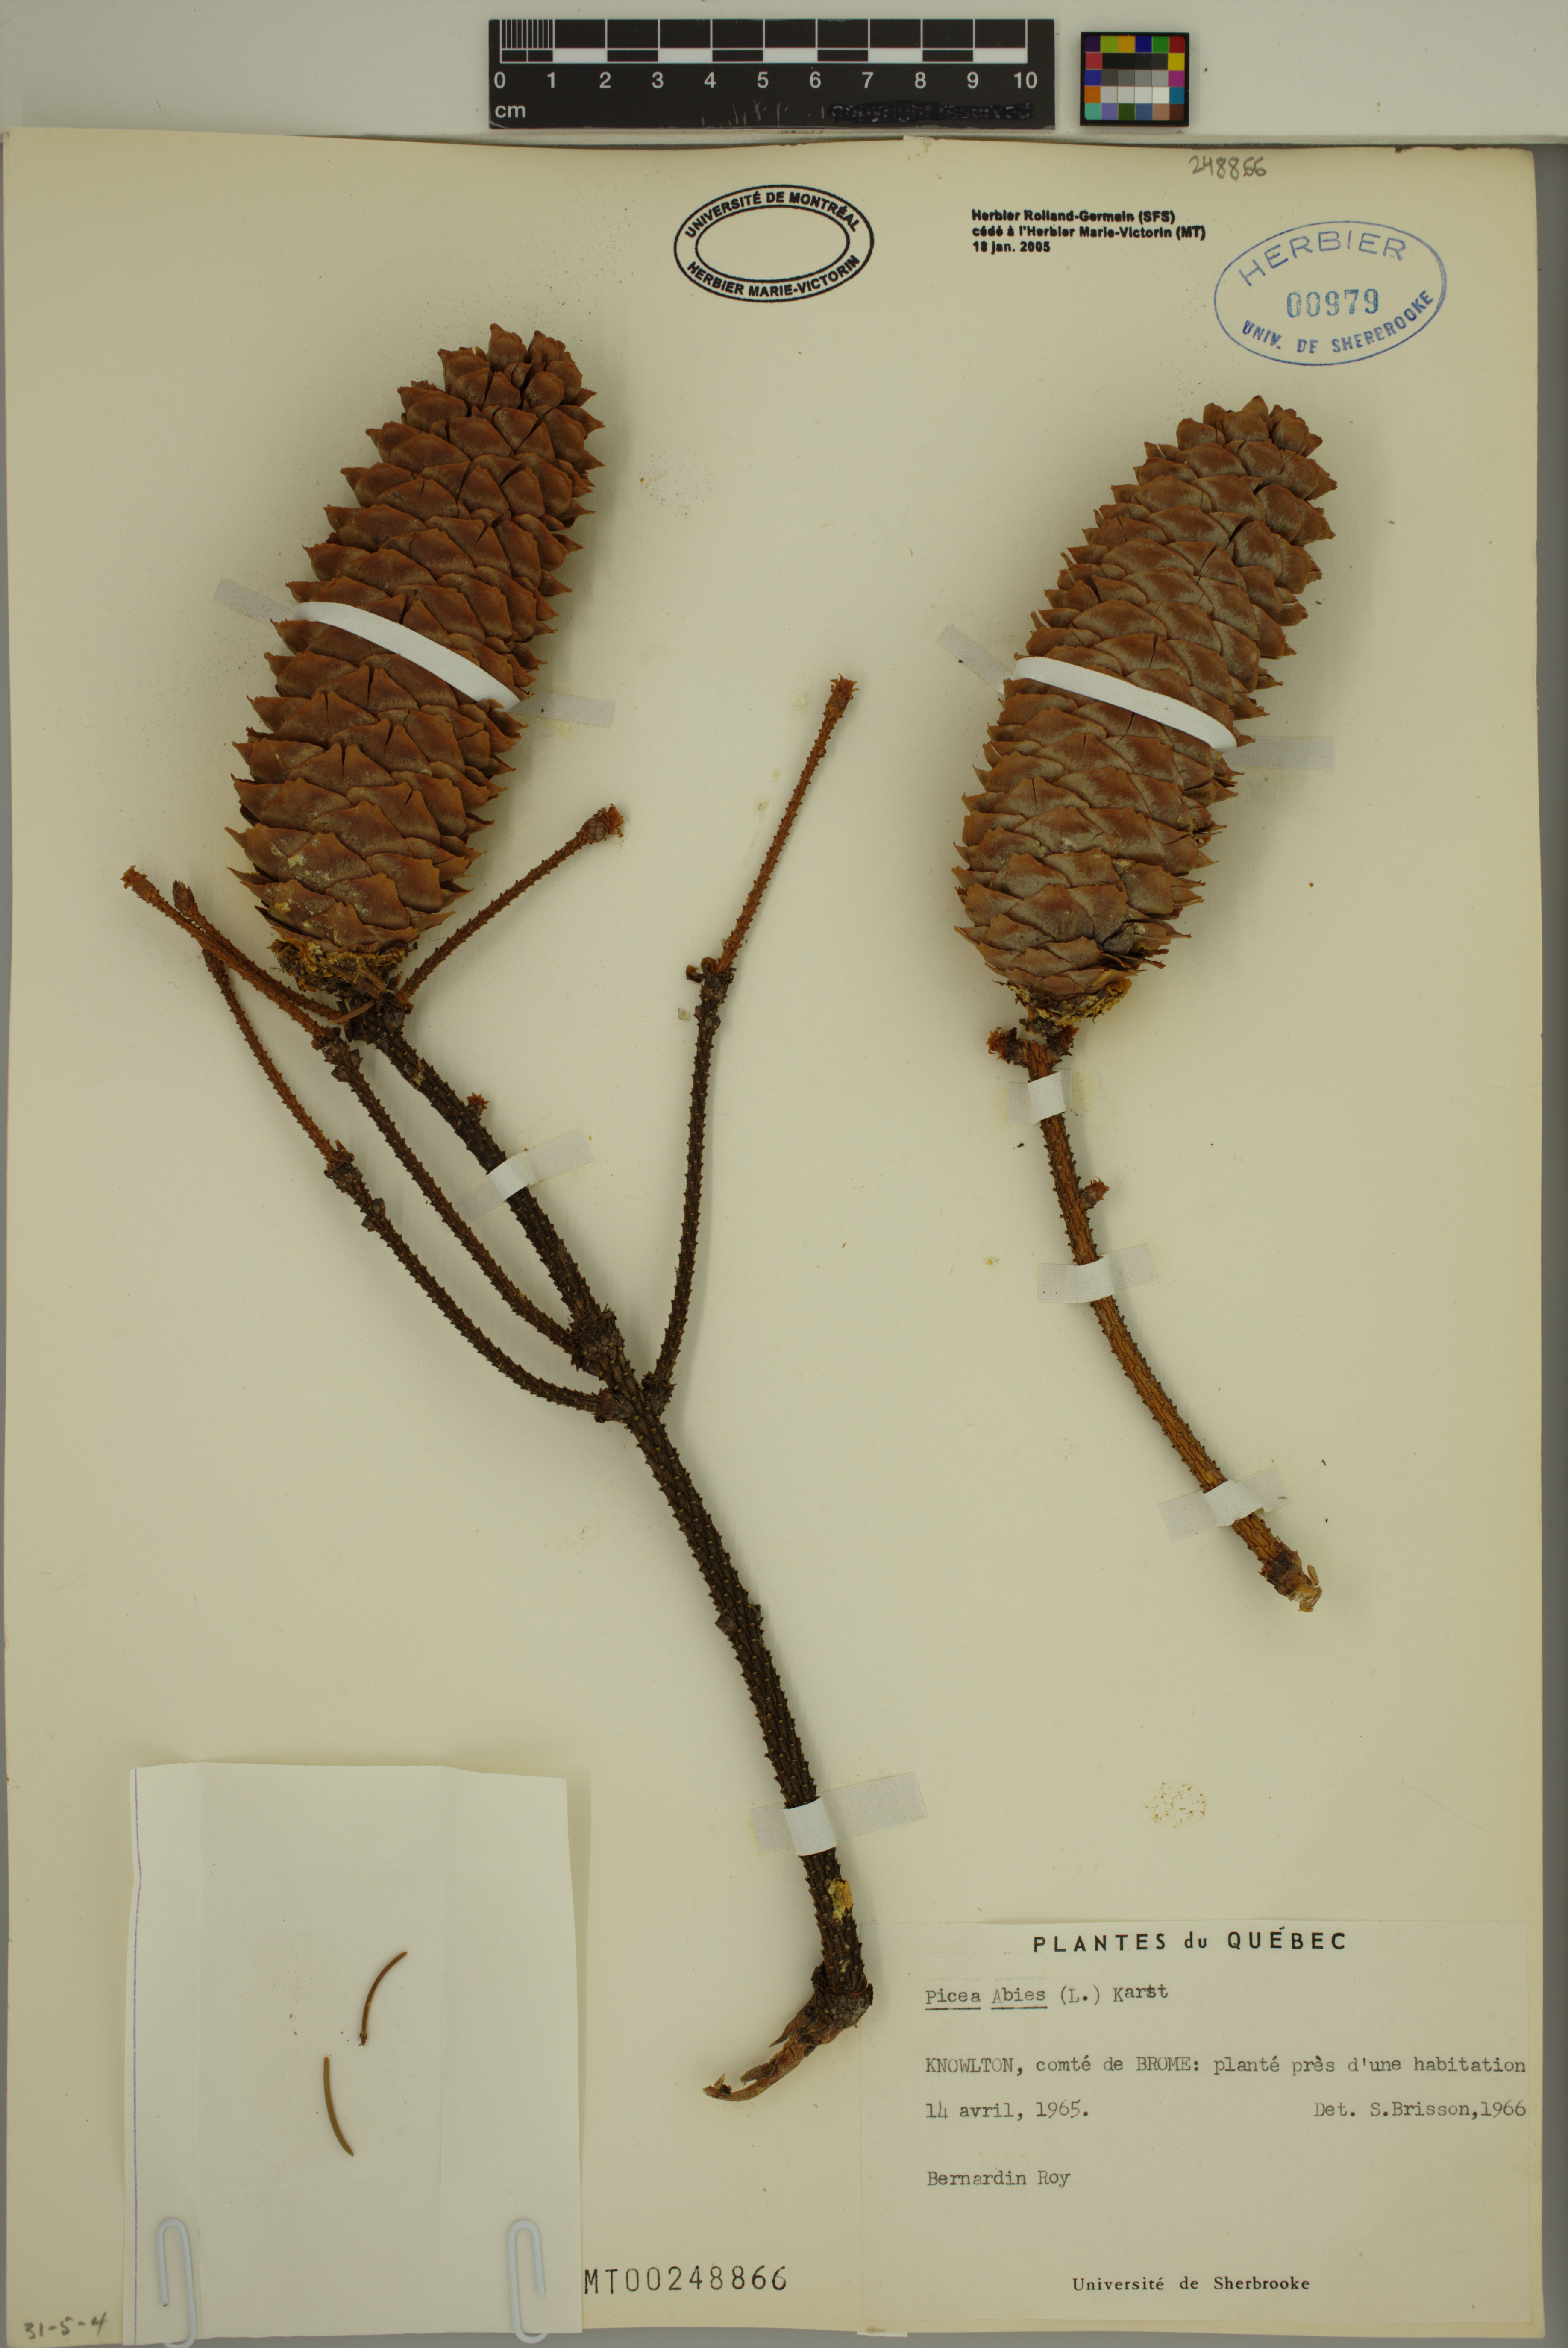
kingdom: Plantae
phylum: Tracheophyta
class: Pinopsida
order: Pinales
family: Pinaceae
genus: Picea
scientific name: Picea abies
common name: Norway spruce
